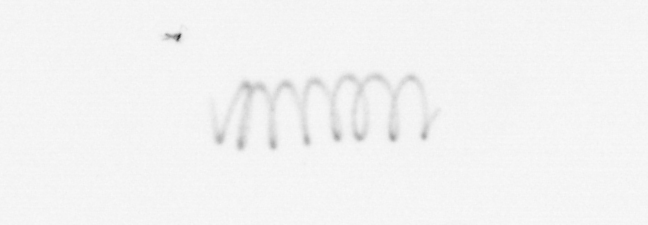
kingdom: Chromista
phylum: Ochrophyta
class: Bacillariophyceae
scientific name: Bacillariophyceae
